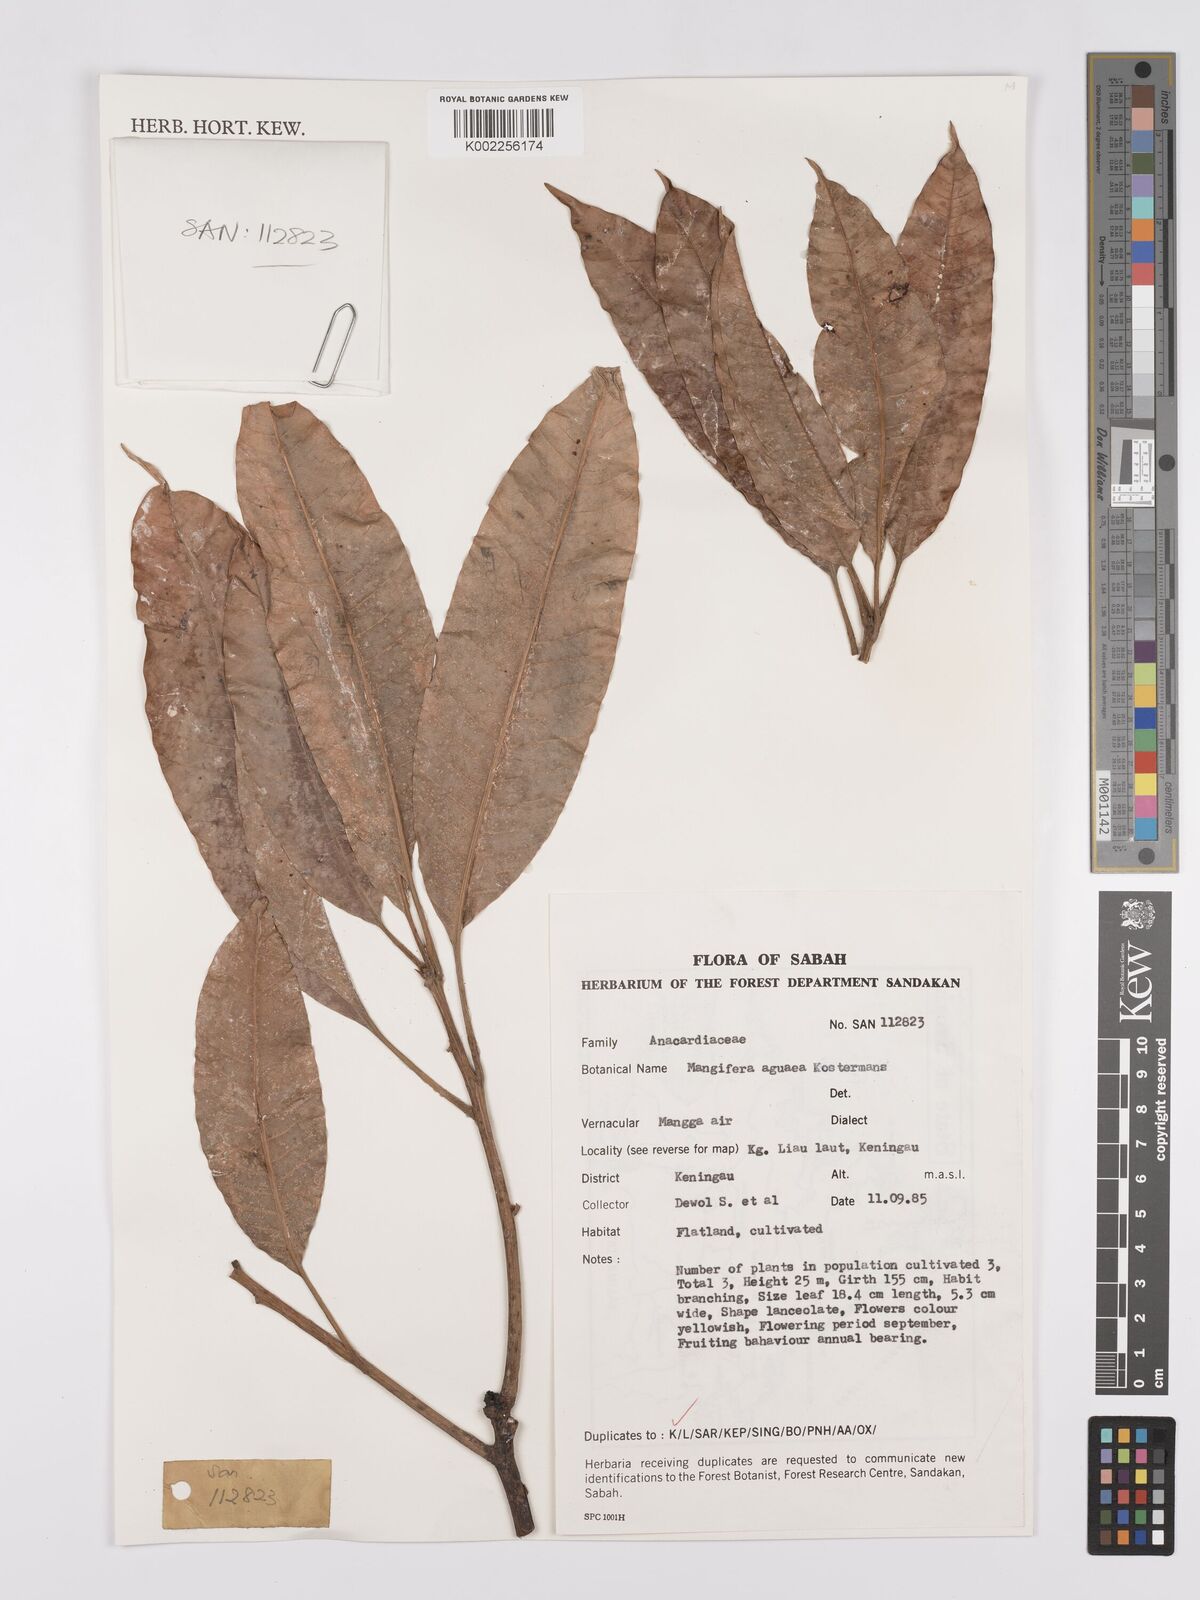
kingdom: Plantae
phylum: Tracheophyta
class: Magnoliopsida
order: Sapindales
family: Anacardiaceae
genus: Mangifera
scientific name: Mangifera laurina
